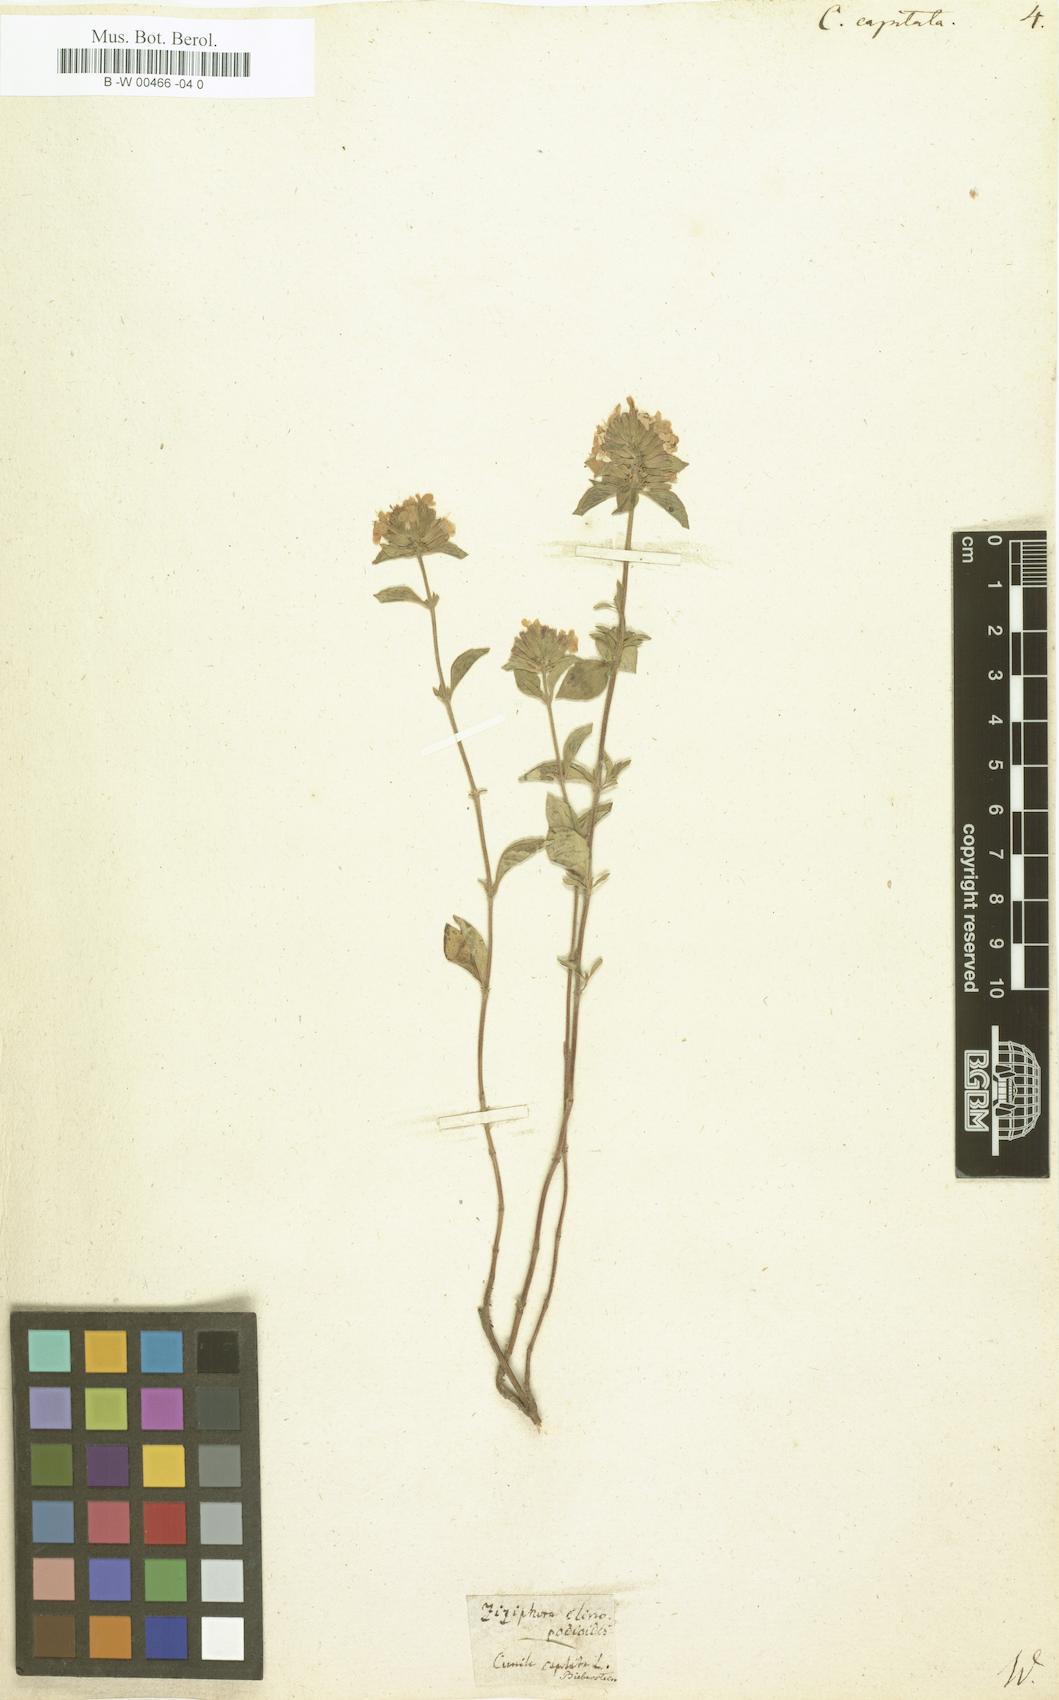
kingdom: Plantae
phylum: Tracheophyta
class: Magnoliopsida
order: Lamiales
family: Lamiaceae
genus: Ziziphora
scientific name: Ziziphora capitata
